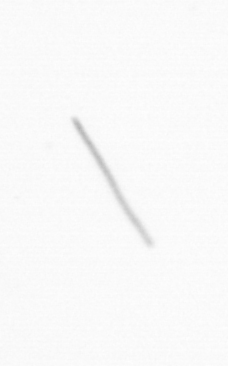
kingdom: Chromista
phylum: Ochrophyta
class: Bacillariophyceae
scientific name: Bacillariophyceae
